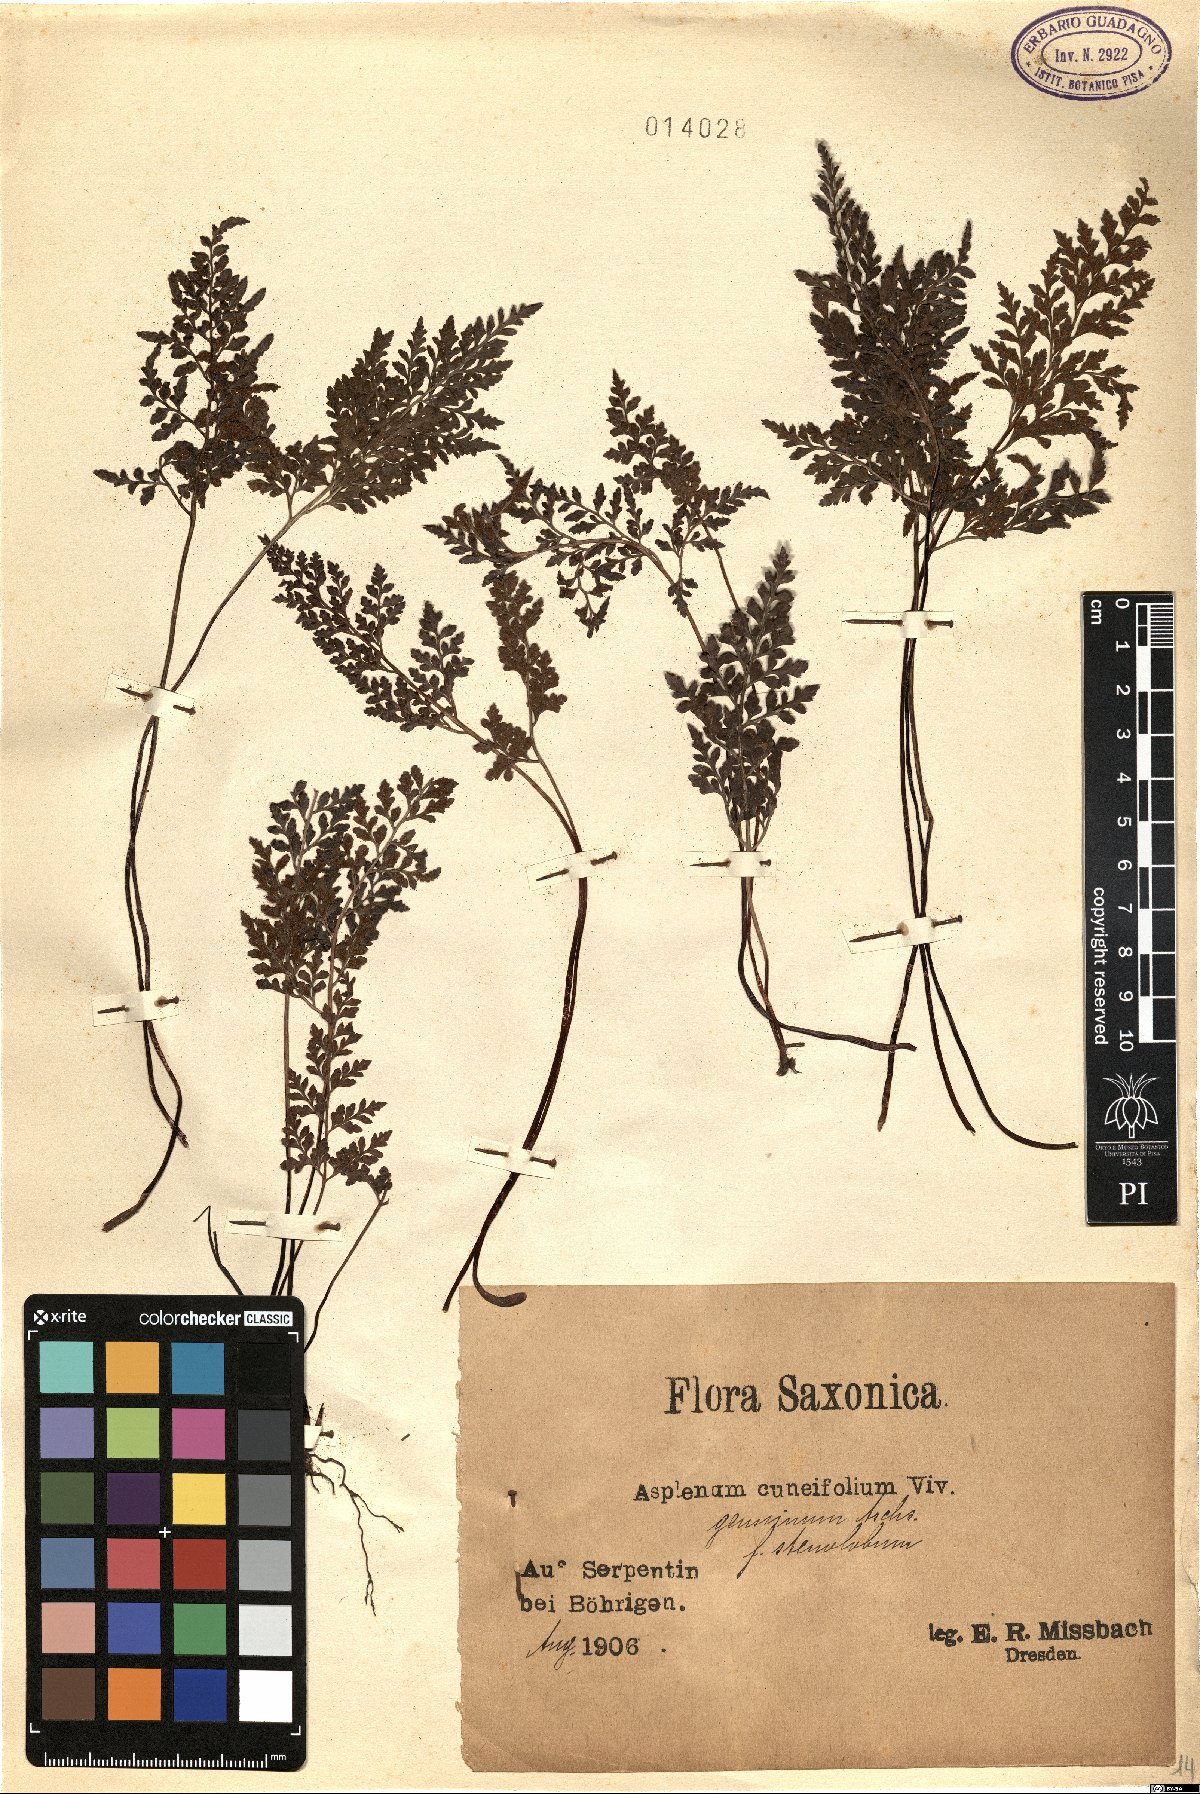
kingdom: Plantae
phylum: Tracheophyta
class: Polypodiopsida
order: Polypodiales
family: Aspleniaceae
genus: Asplenium
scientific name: Asplenium cuneifolium
